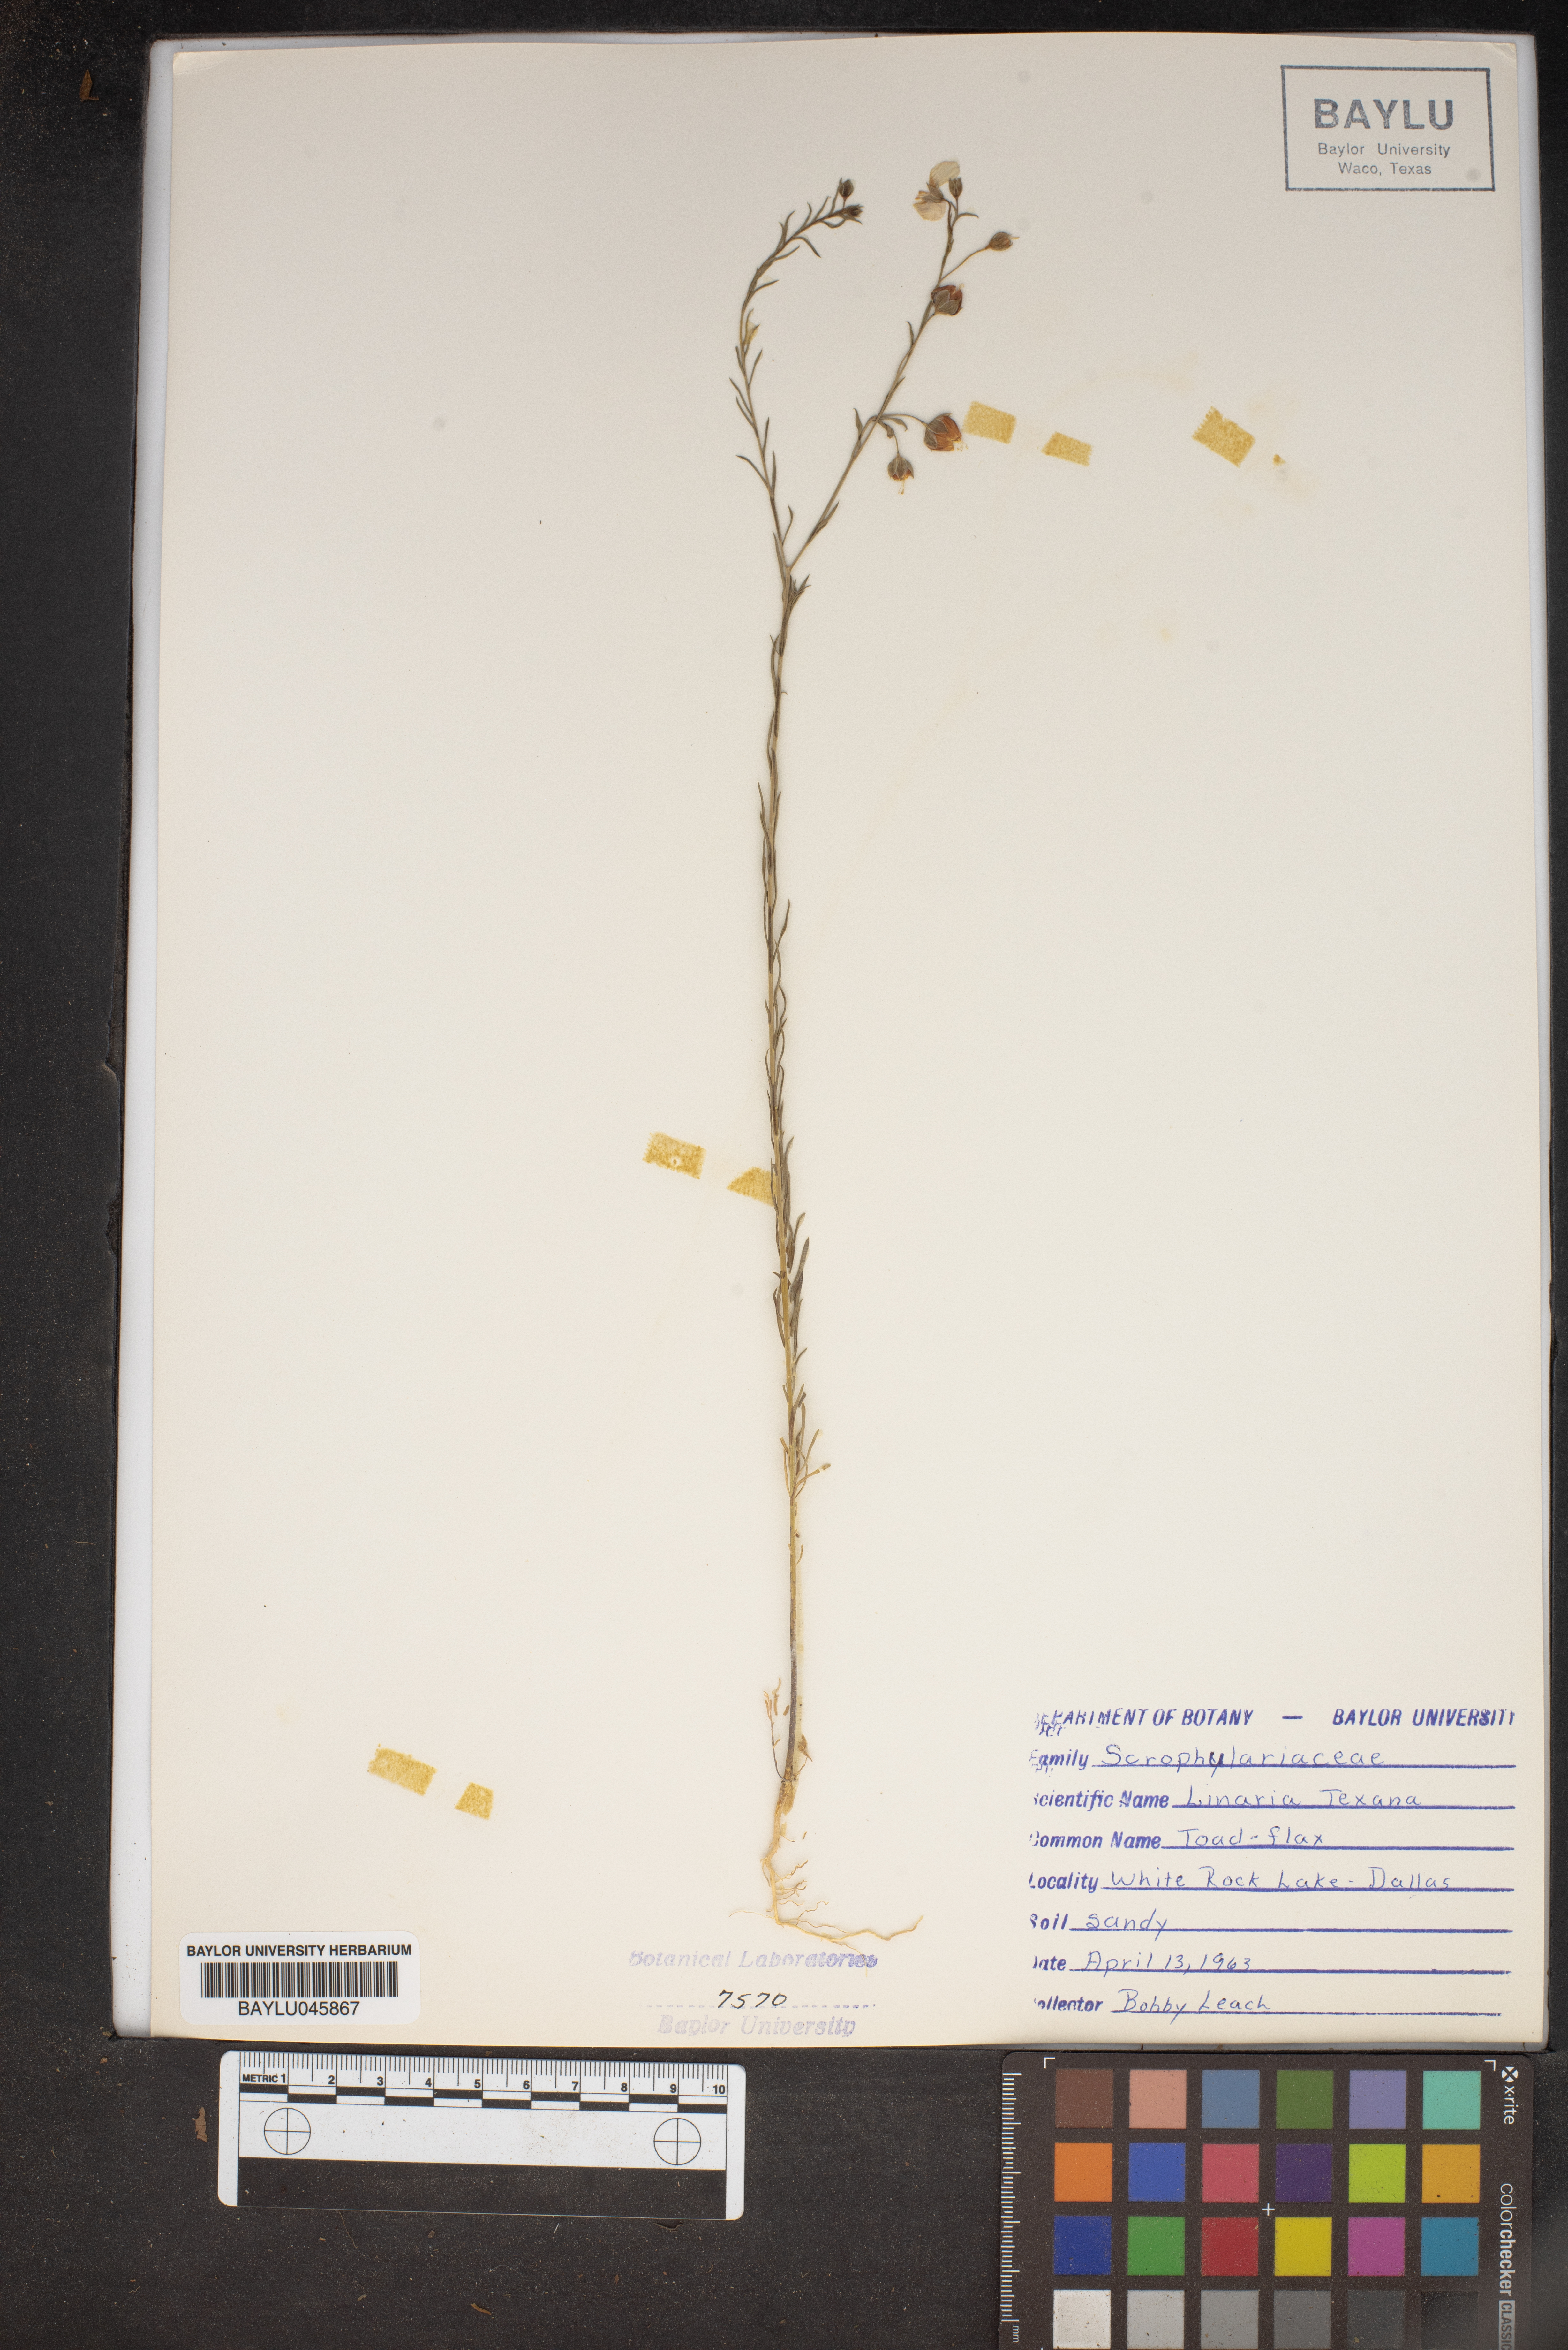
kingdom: Plantae
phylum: Tracheophyta
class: Magnoliopsida
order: Lamiales
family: Plantaginaceae
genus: Nuttallanthus
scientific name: Nuttallanthus texanus
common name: Texas toadflax
